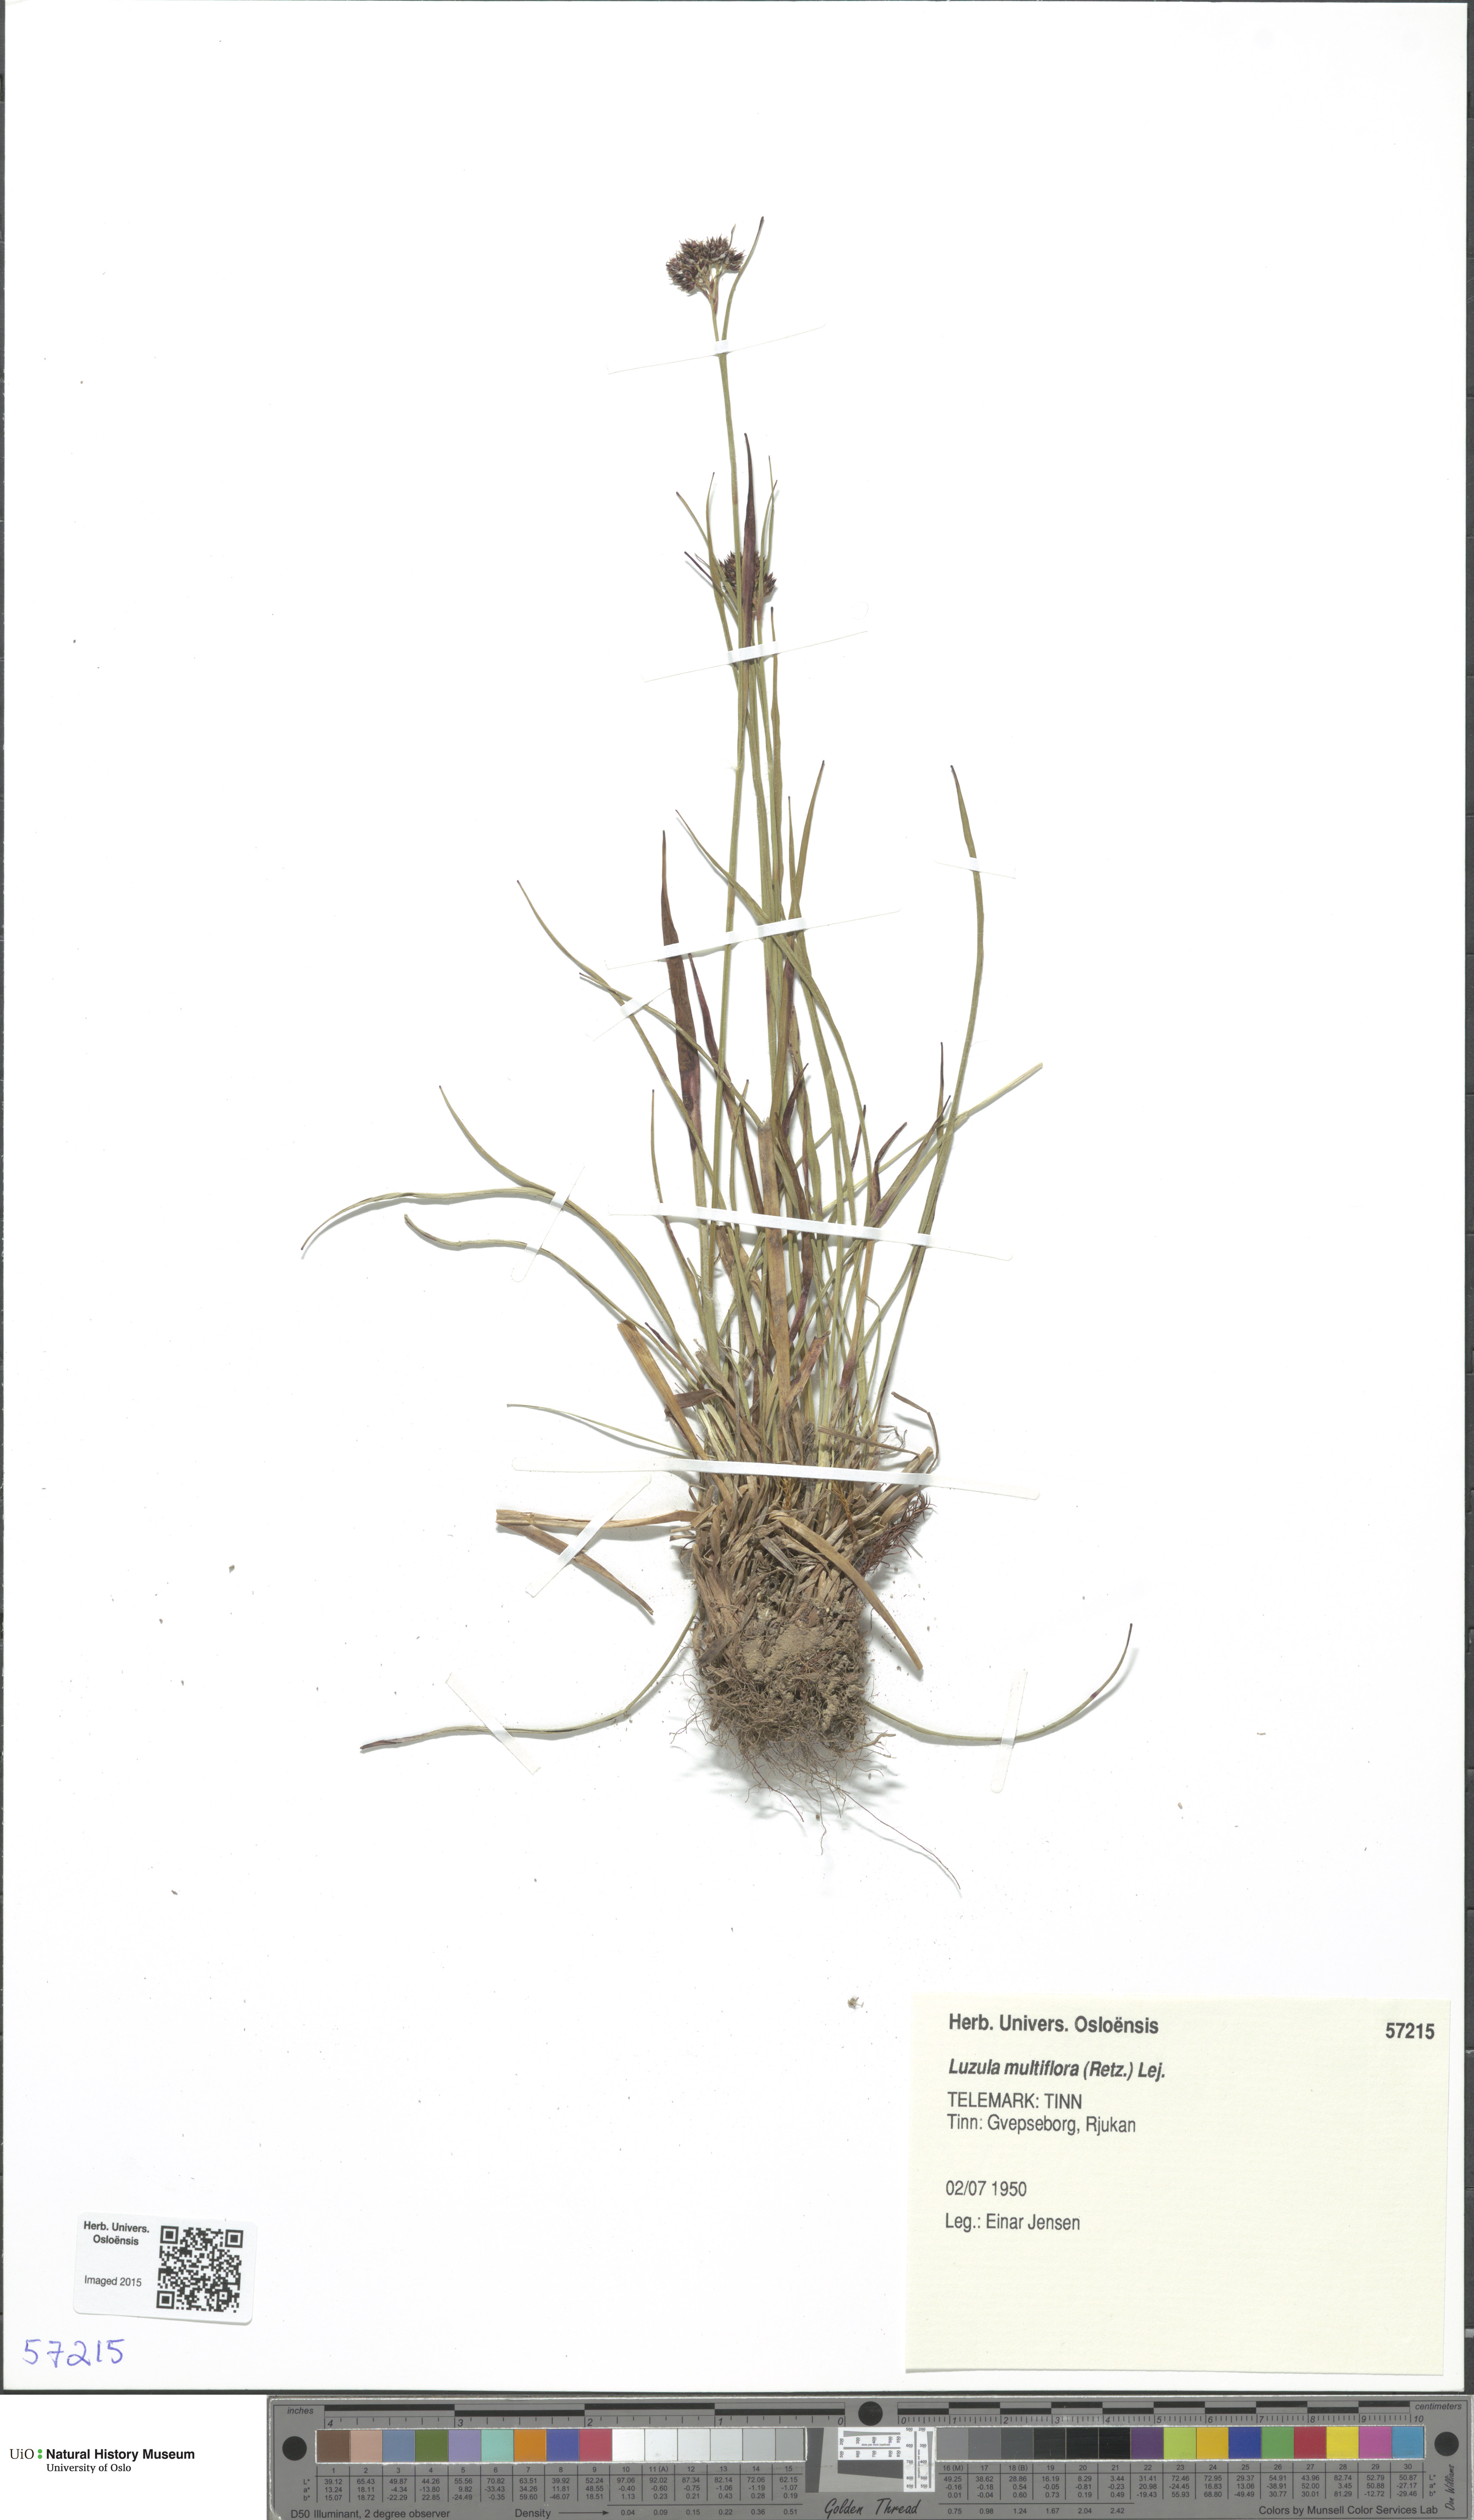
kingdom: Plantae
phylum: Tracheophyta
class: Liliopsida
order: Poales
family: Juncaceae
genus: Luzula
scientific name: Luzula multiflora
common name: Heath wood-rush
